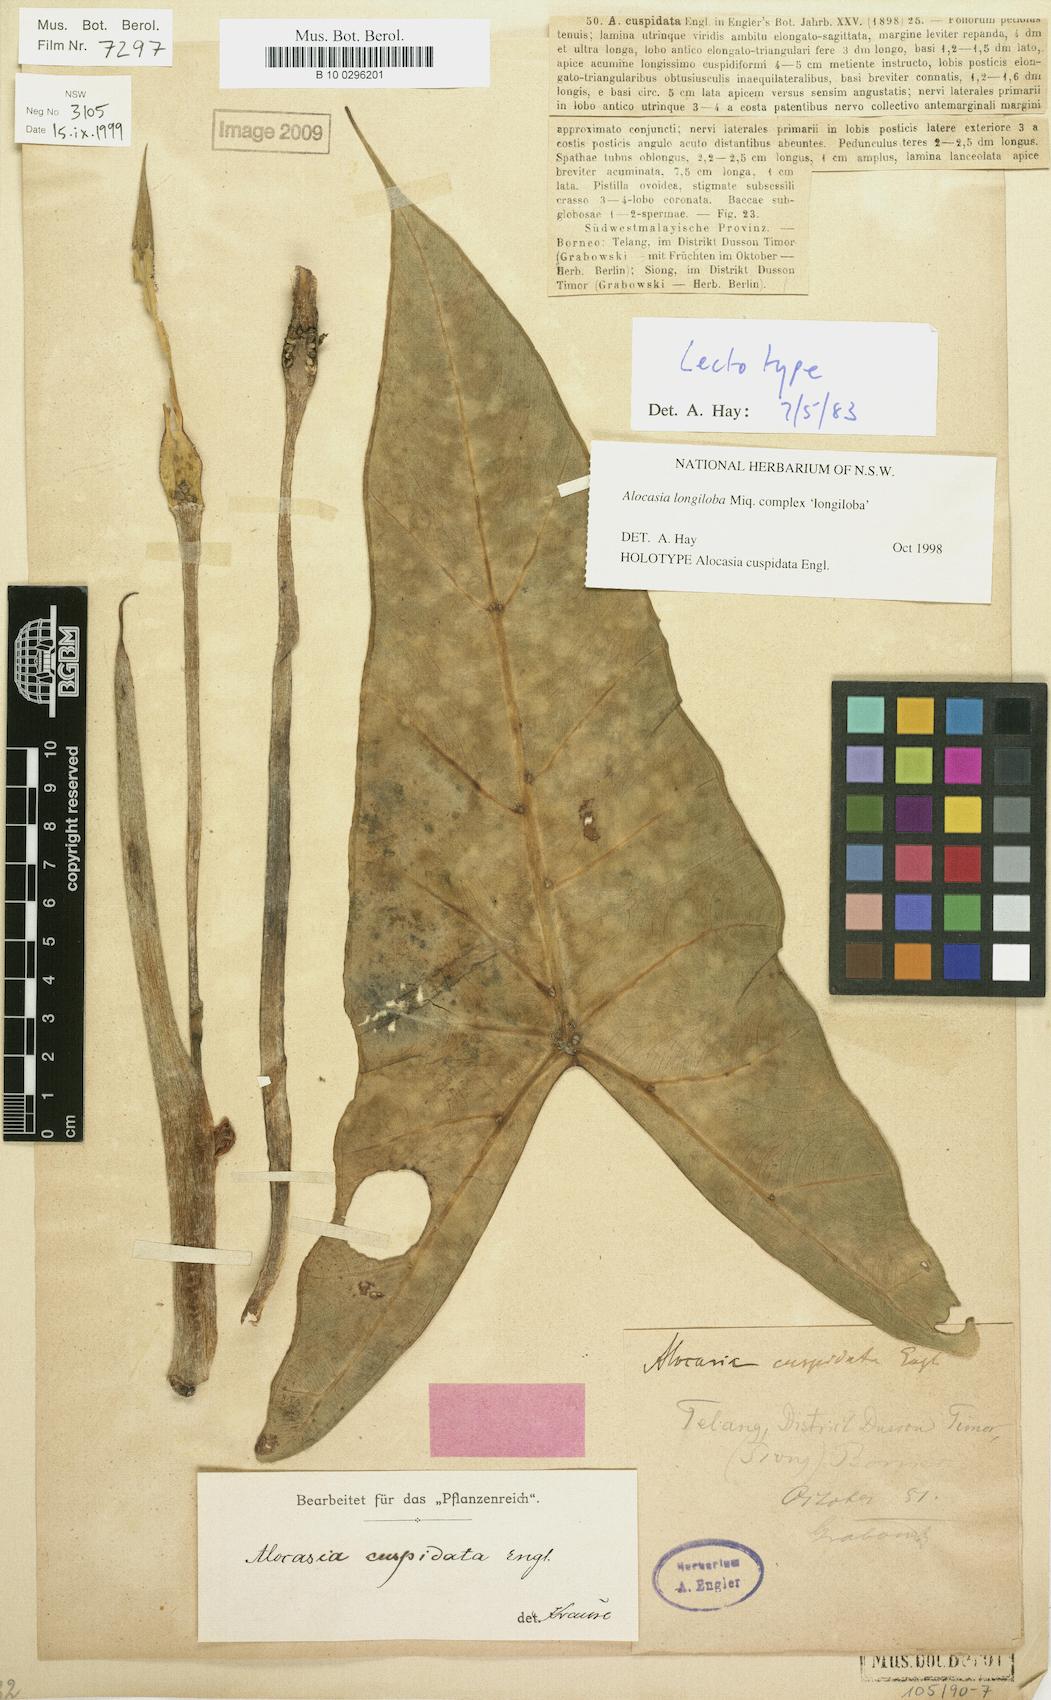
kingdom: Plantae
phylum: Tracheophyta
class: Liliopsida
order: Alismatales
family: Araceae
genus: Alocasia
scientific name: Alocasia longiloba
